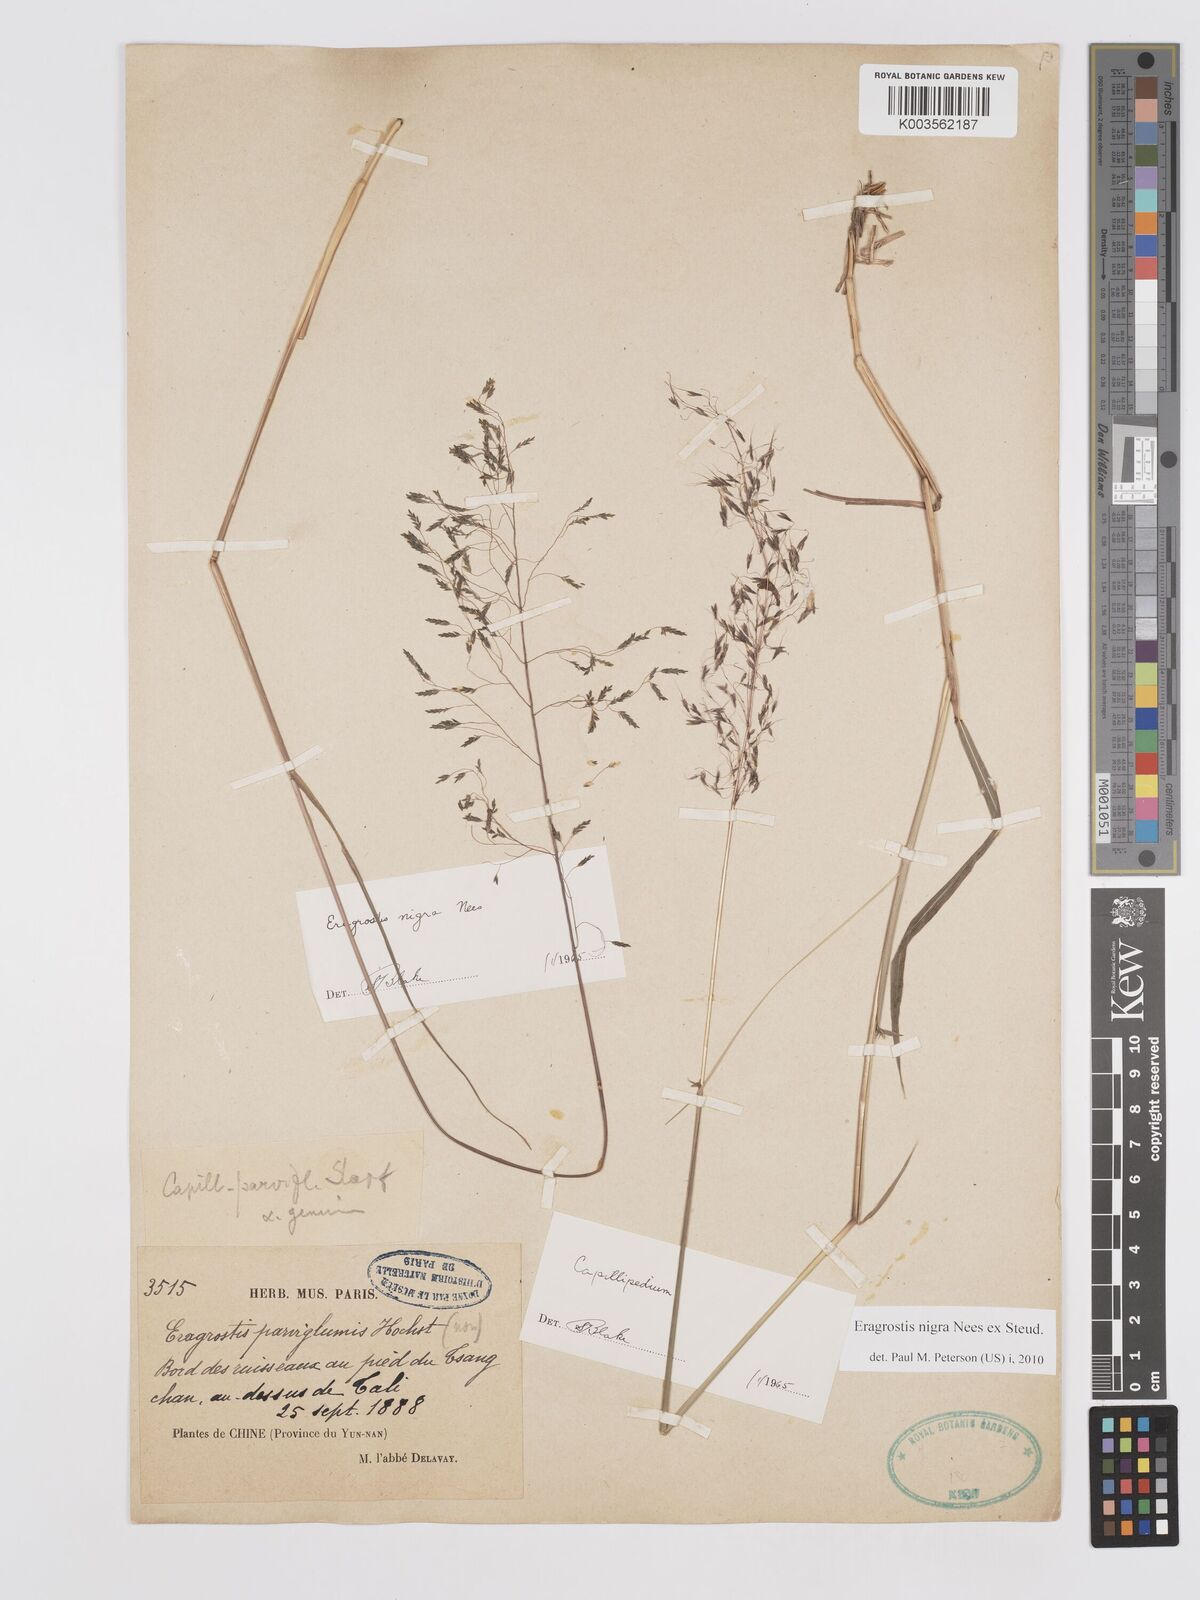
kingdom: Plantae
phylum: Tracheophyta
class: Liliopsida
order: Poales
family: Poaceae
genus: Eragrostis
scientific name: Eragrostis nigra
